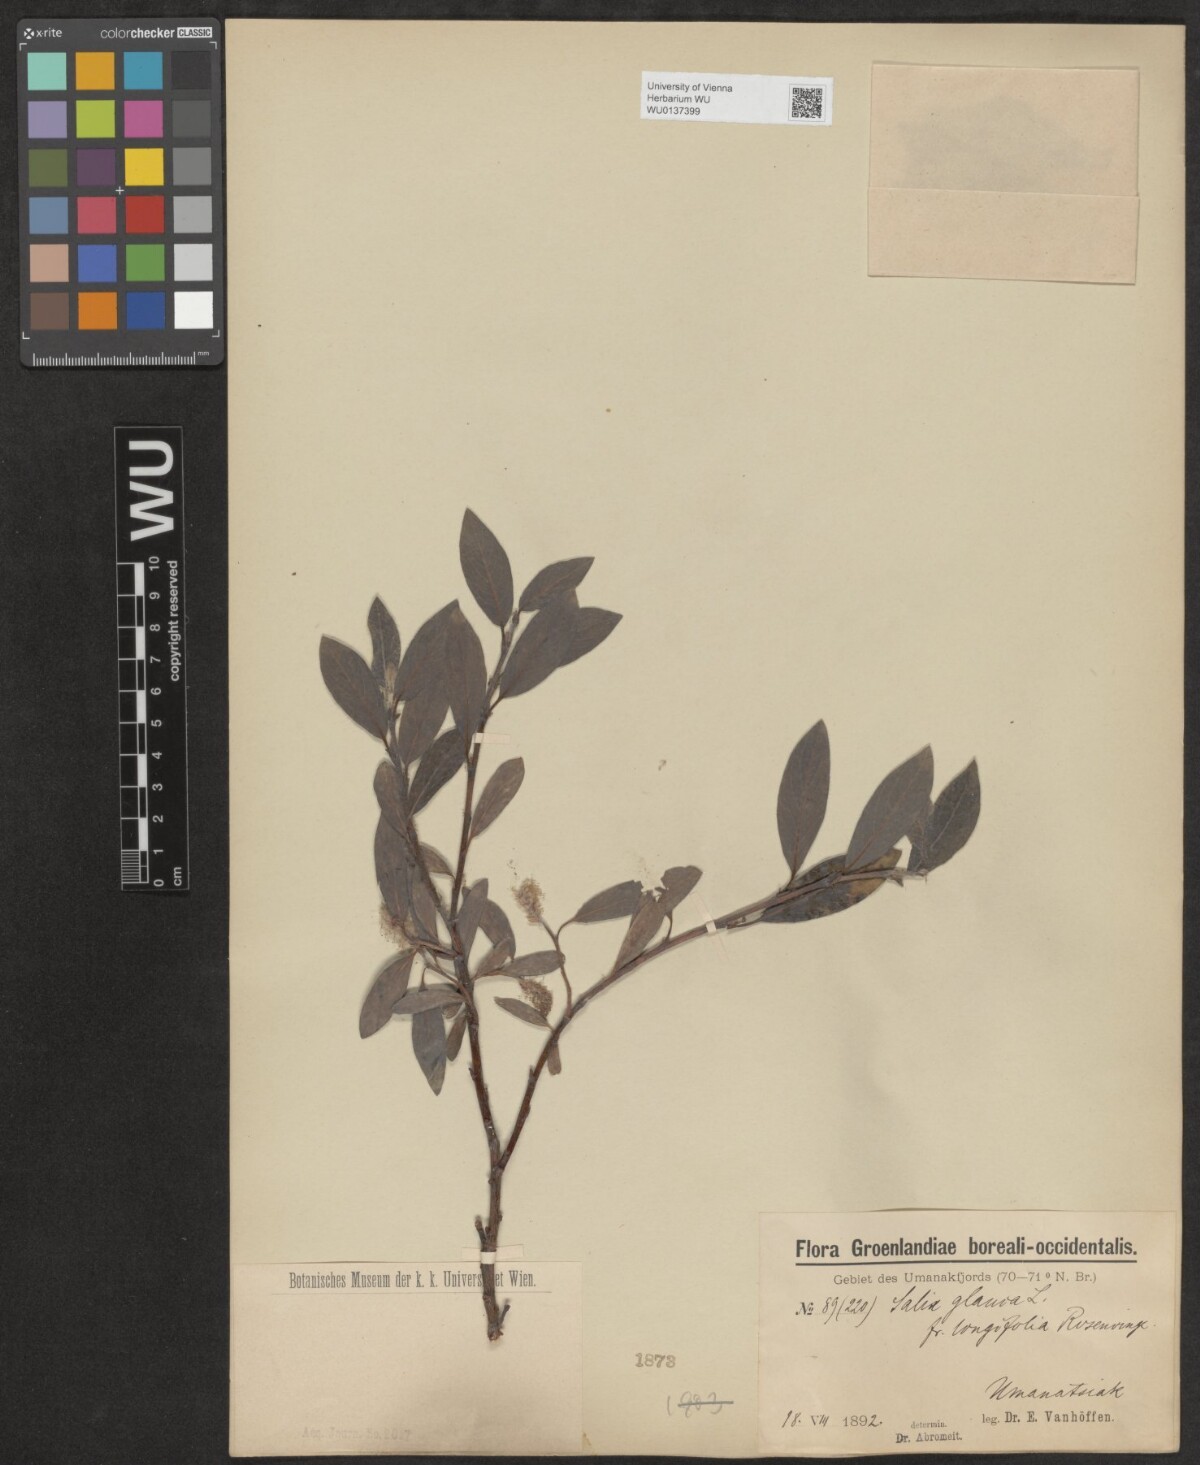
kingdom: Plantae
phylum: Tracheophyta
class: Magnoliopsida
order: Malpighiales
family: Salicaceae
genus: Salix
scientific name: Salix glauca
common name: Glaucous willow
